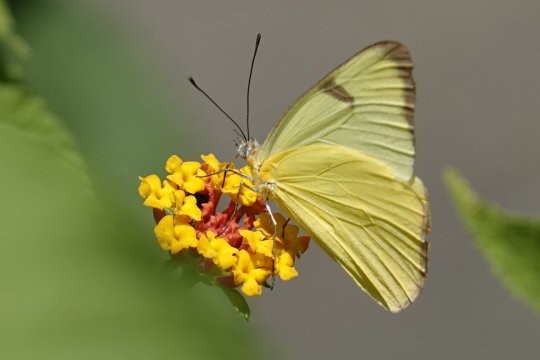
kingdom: Animalia
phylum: Arthropoda
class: Insecta
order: Lepidoptera
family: Pieridae
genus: Melete
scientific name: Melete polyhymnia
